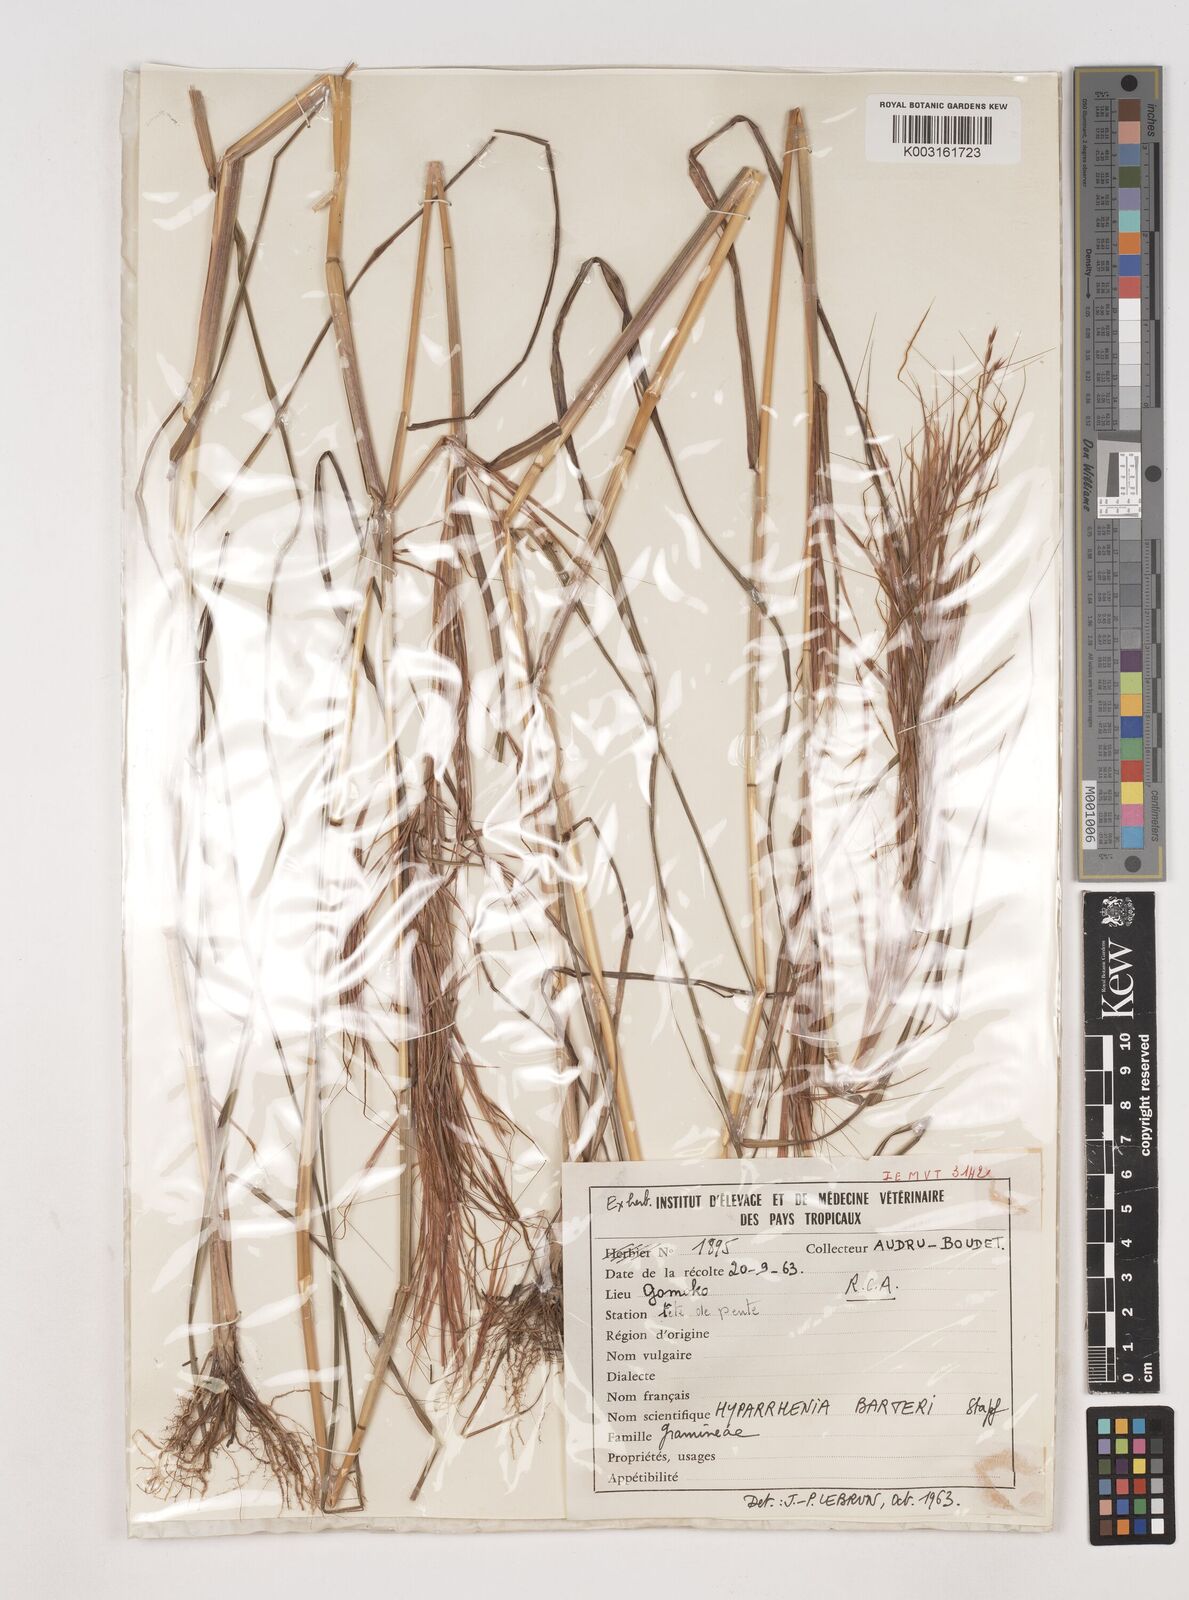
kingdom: Plantae
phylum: Tracheophyta
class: Liliopsida
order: Poales
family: Poaceae
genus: Hyparrhenia
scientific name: Hyparrhenia barteri
